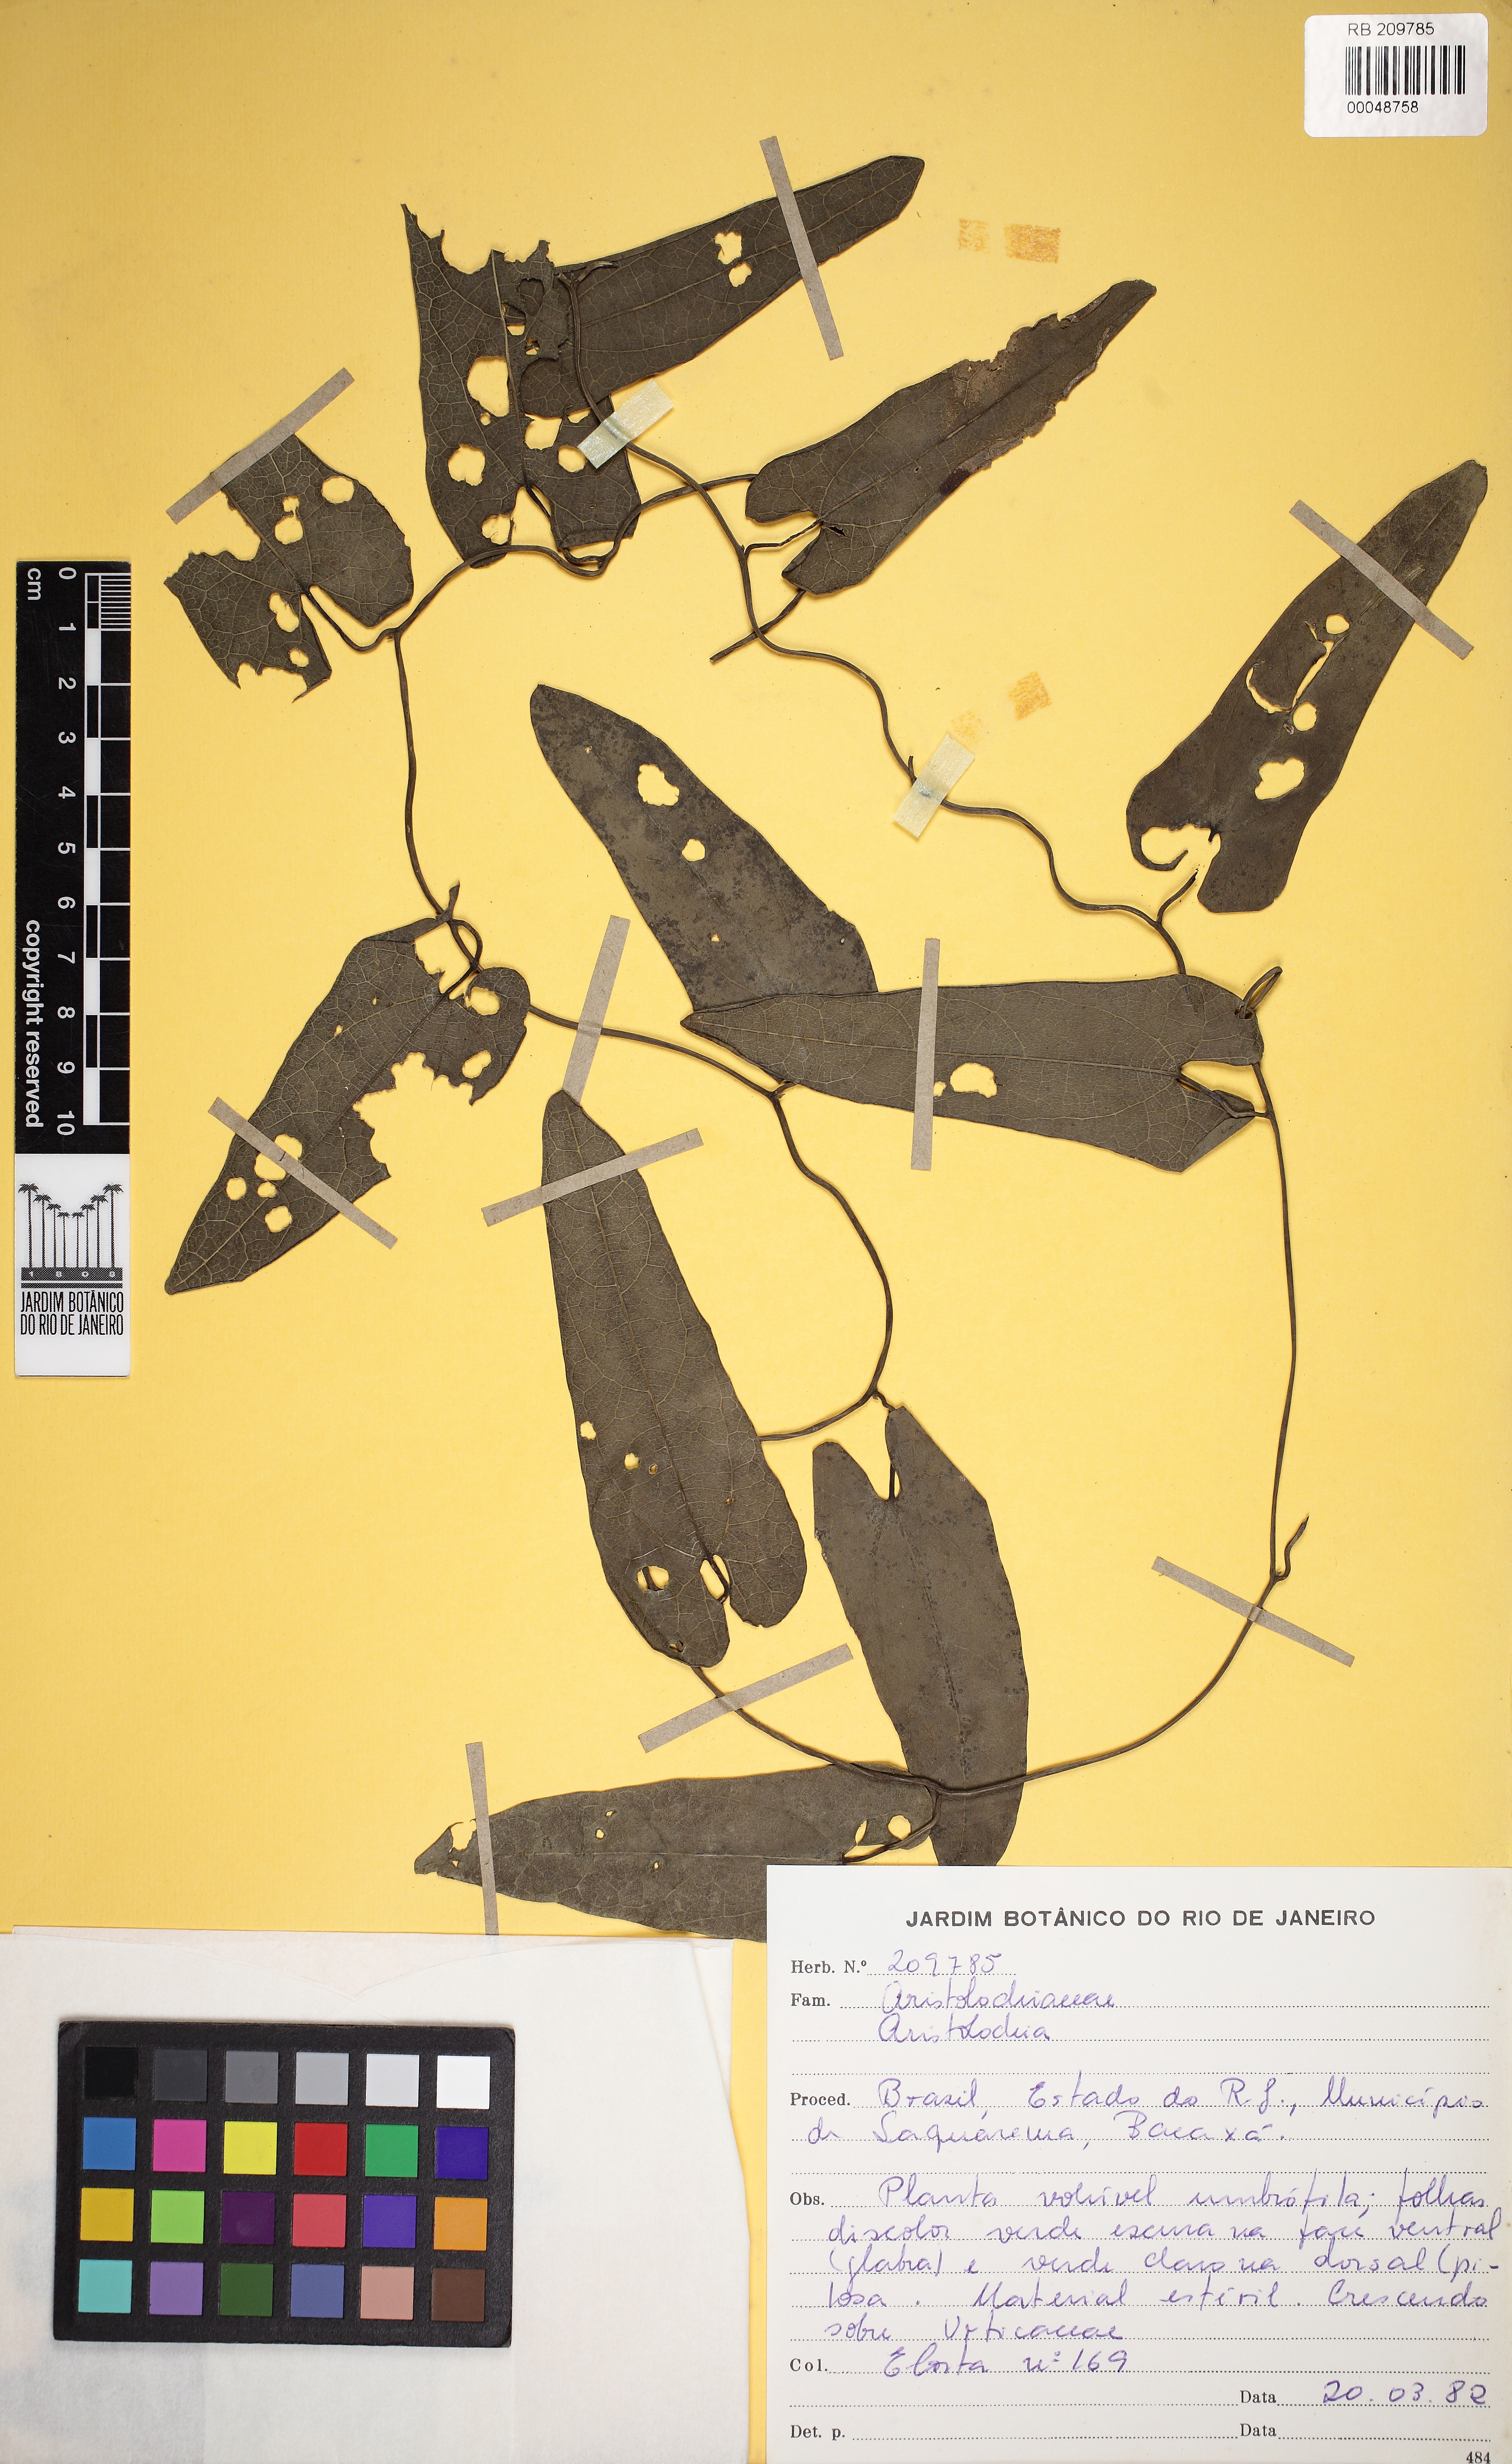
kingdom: Plantae
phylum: Tracheophyta
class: Magnoliopsida
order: Piperales
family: Aristolochiaceae
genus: Aristolochia
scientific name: Aristolochia
